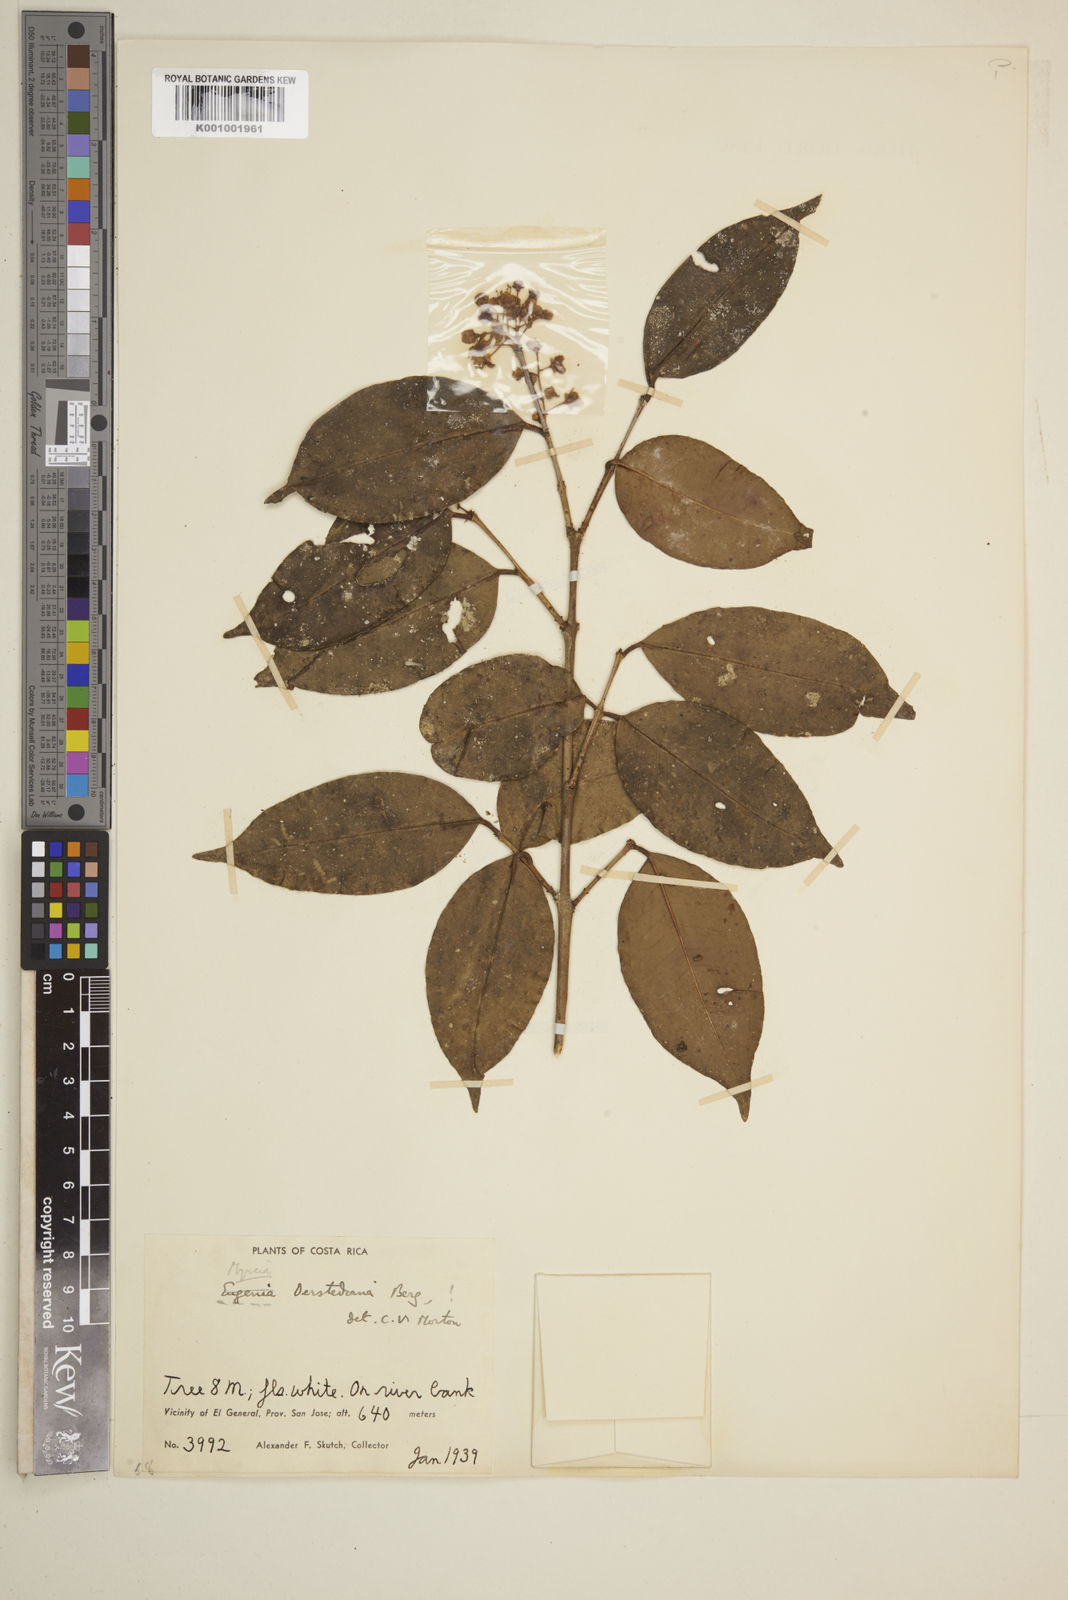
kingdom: Plantae
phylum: Tracheophyta
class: Magnoliopsida
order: Myrtales
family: Myrtaceae
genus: Eugenia
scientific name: Eugenia oerstediana
